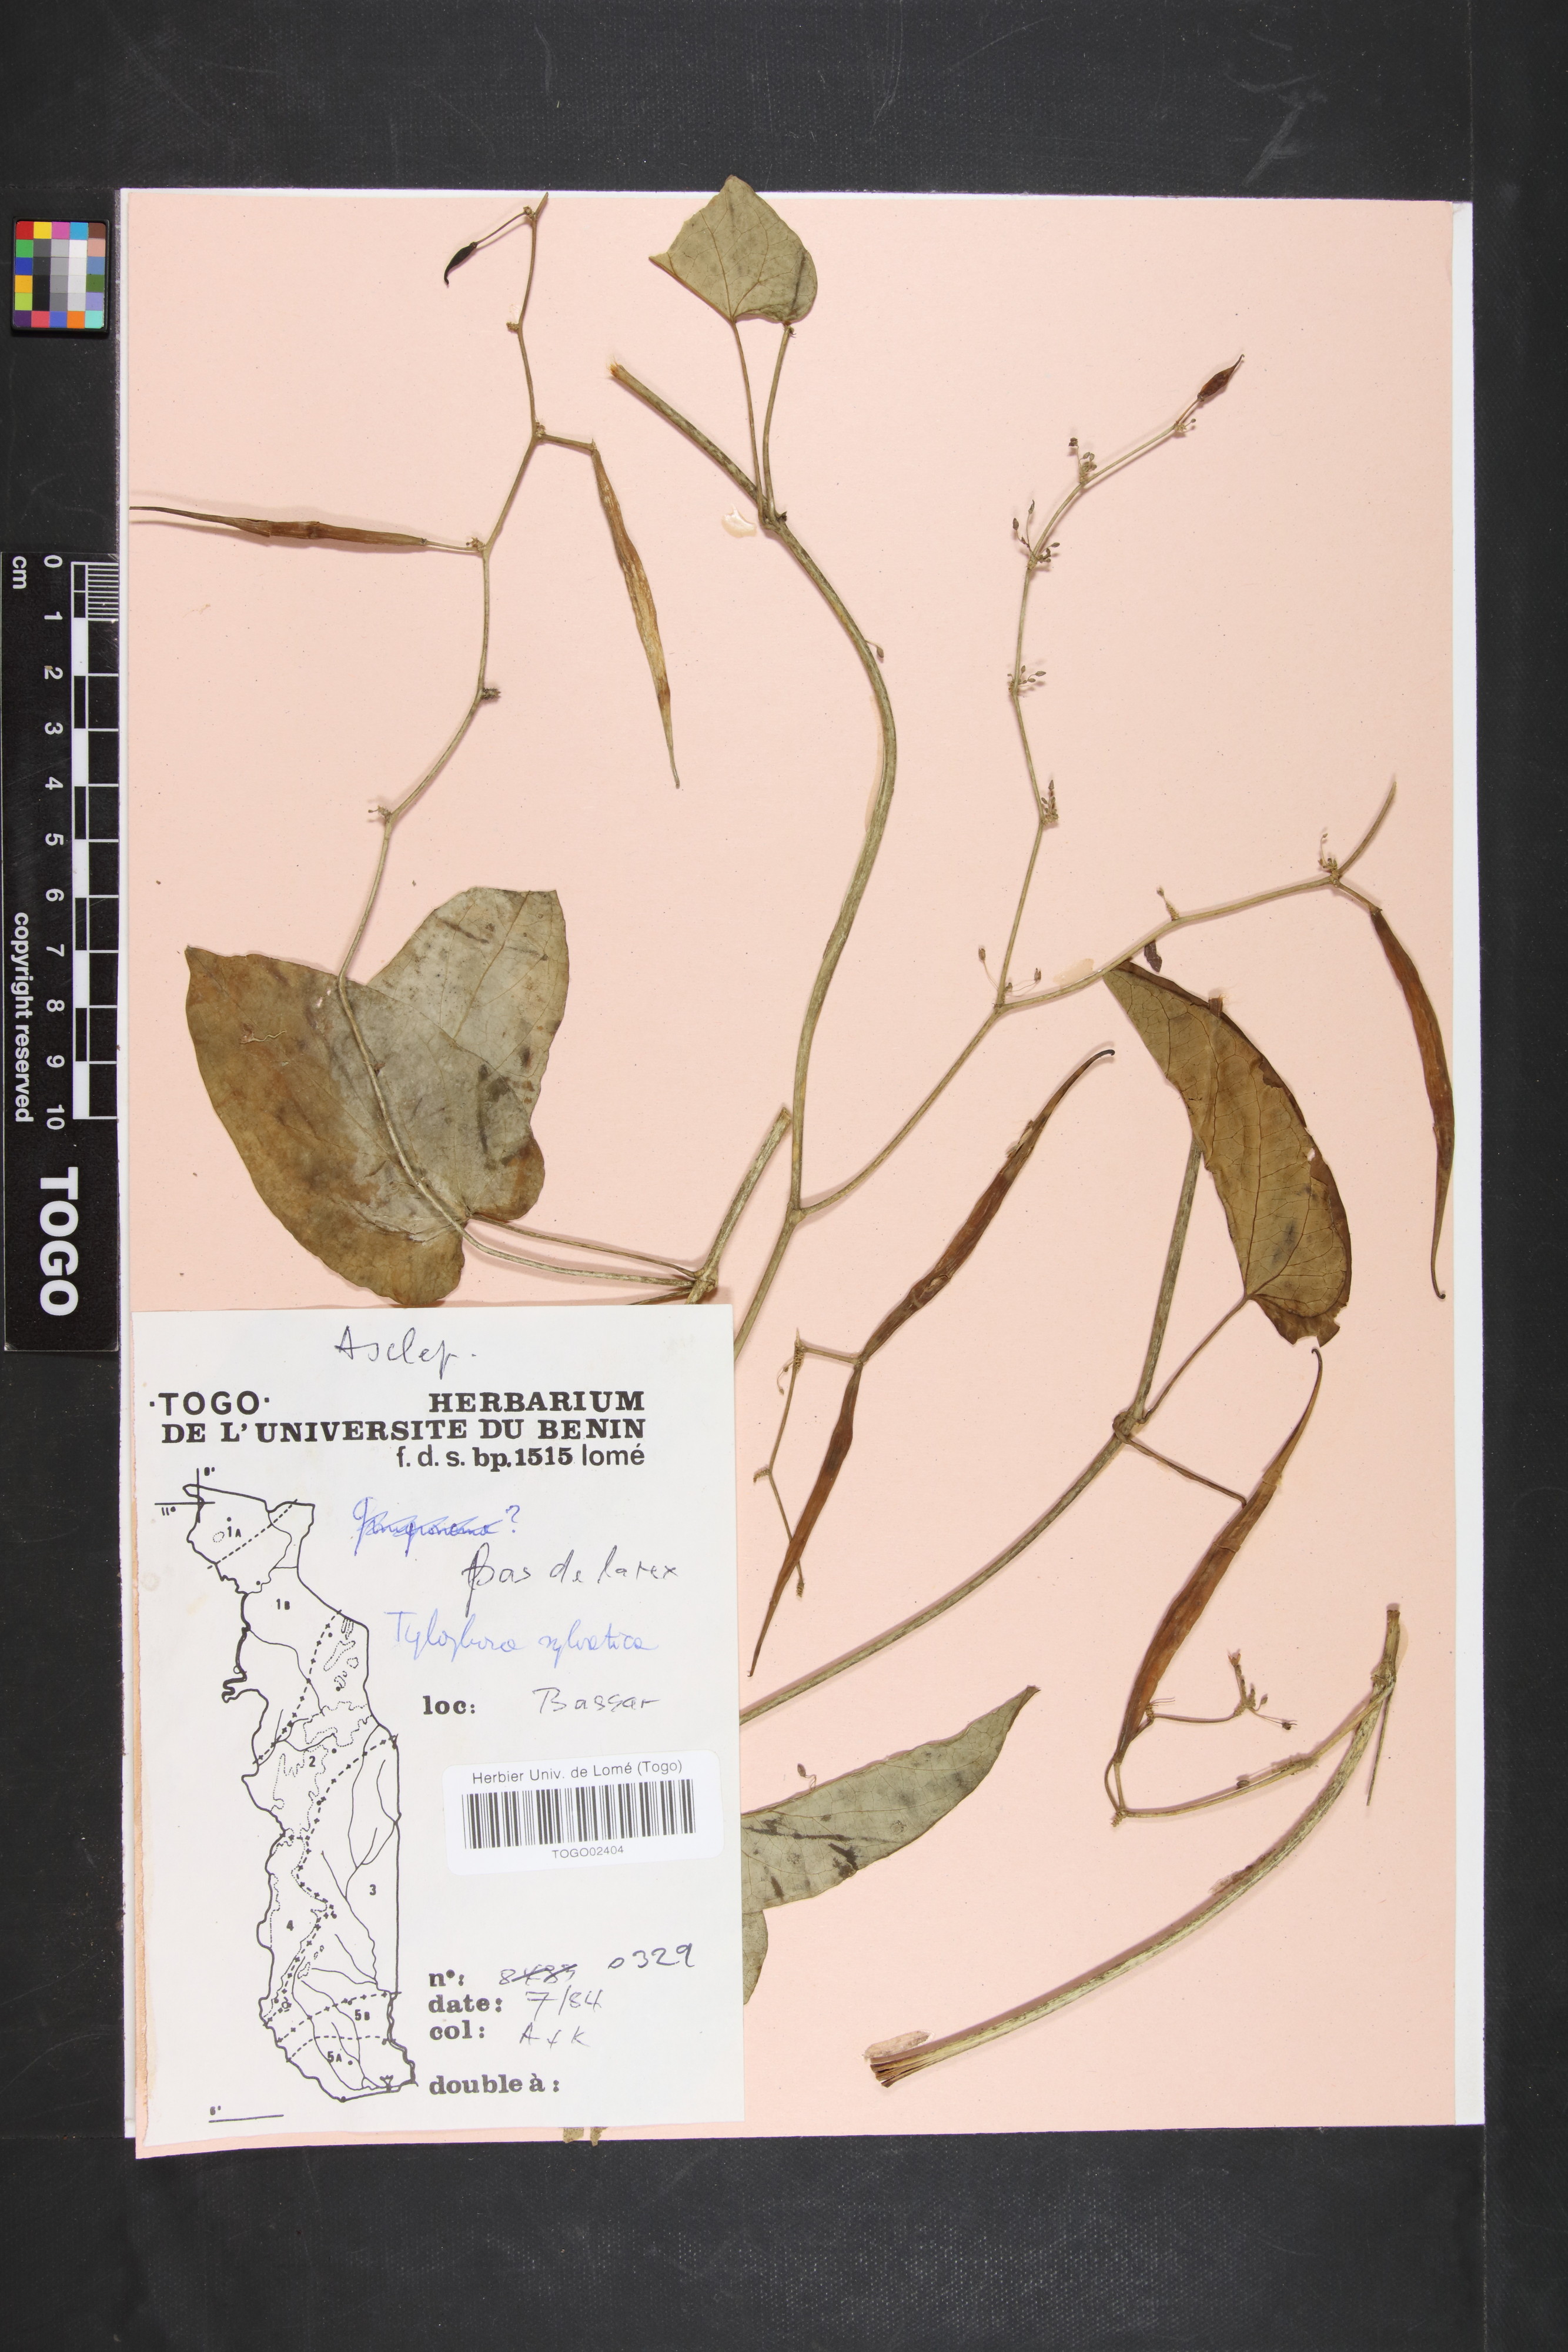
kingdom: Plantae
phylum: Tracheophyta
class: Magnoliopsida
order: Gentianales
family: Apocynaceae
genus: Vincetoxicum
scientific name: Vincetoxicum sylvaticum
